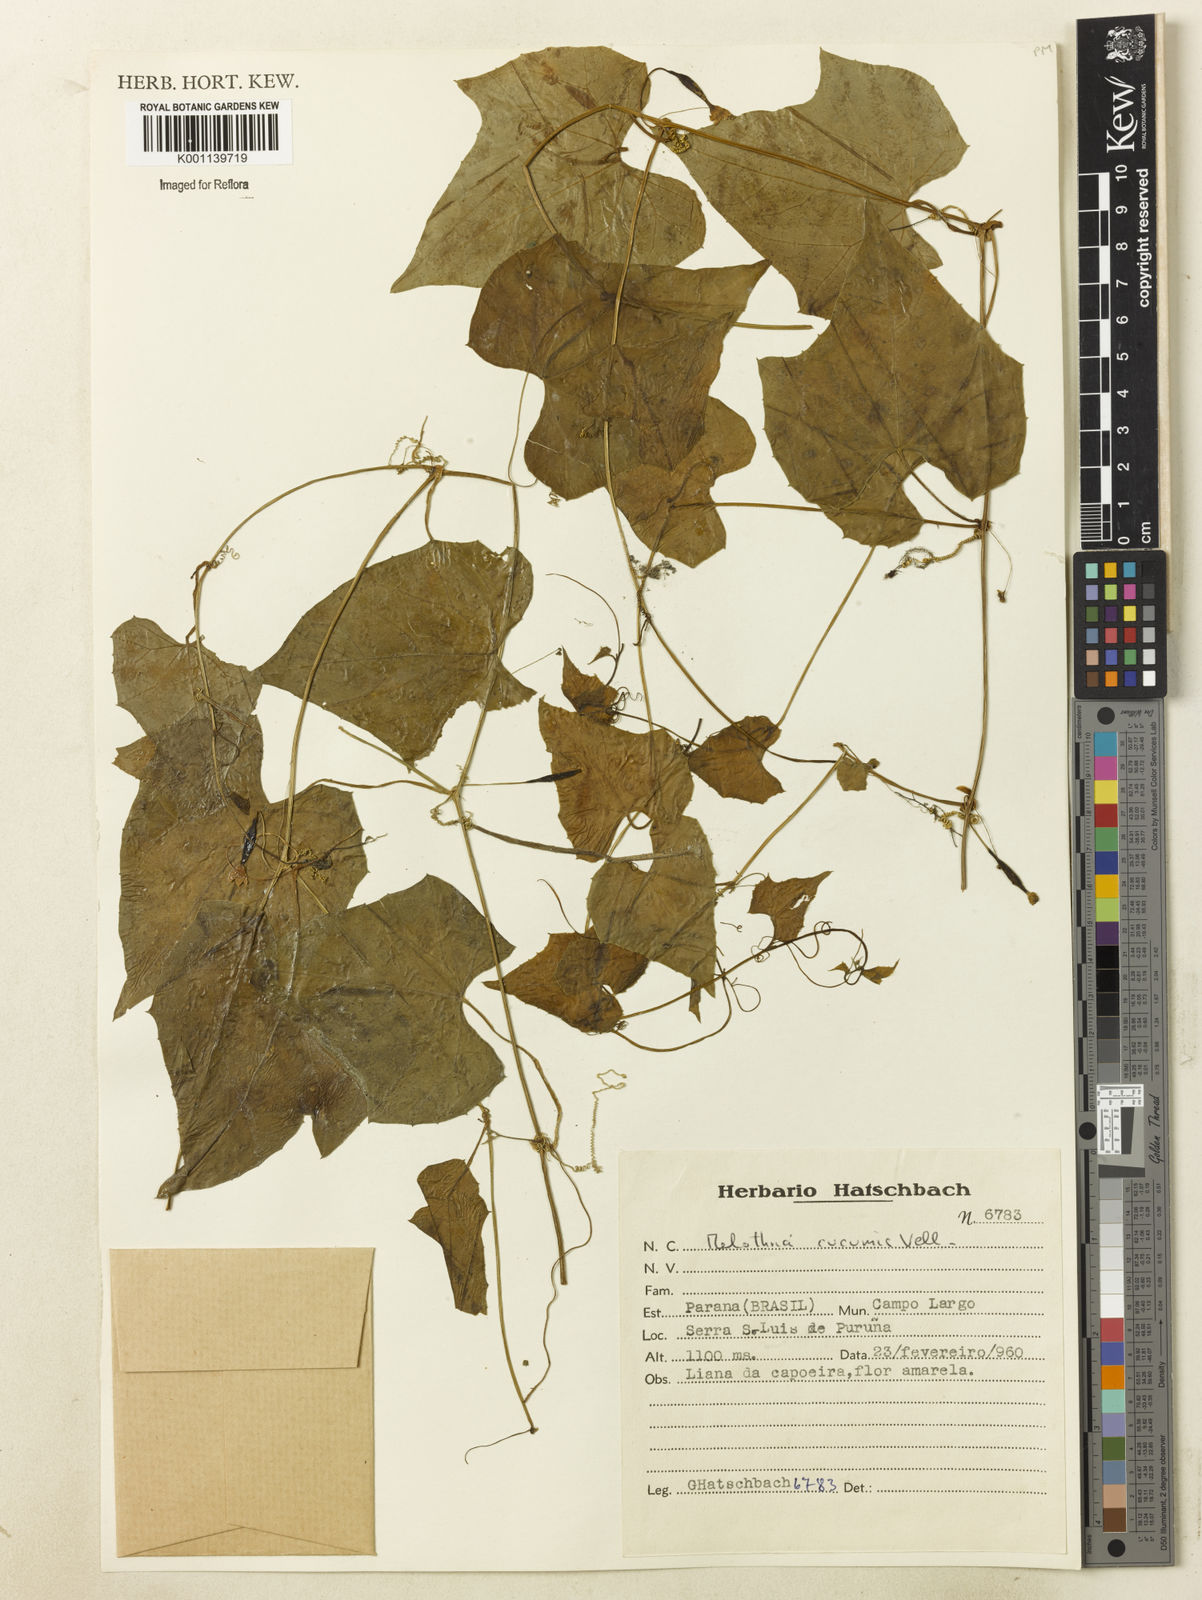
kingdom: Plantae
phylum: Tracheophyta
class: Magnoliopsida
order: Cucurbitales
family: Cucurbitaceae
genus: Melothria
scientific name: Melothria cucumis
